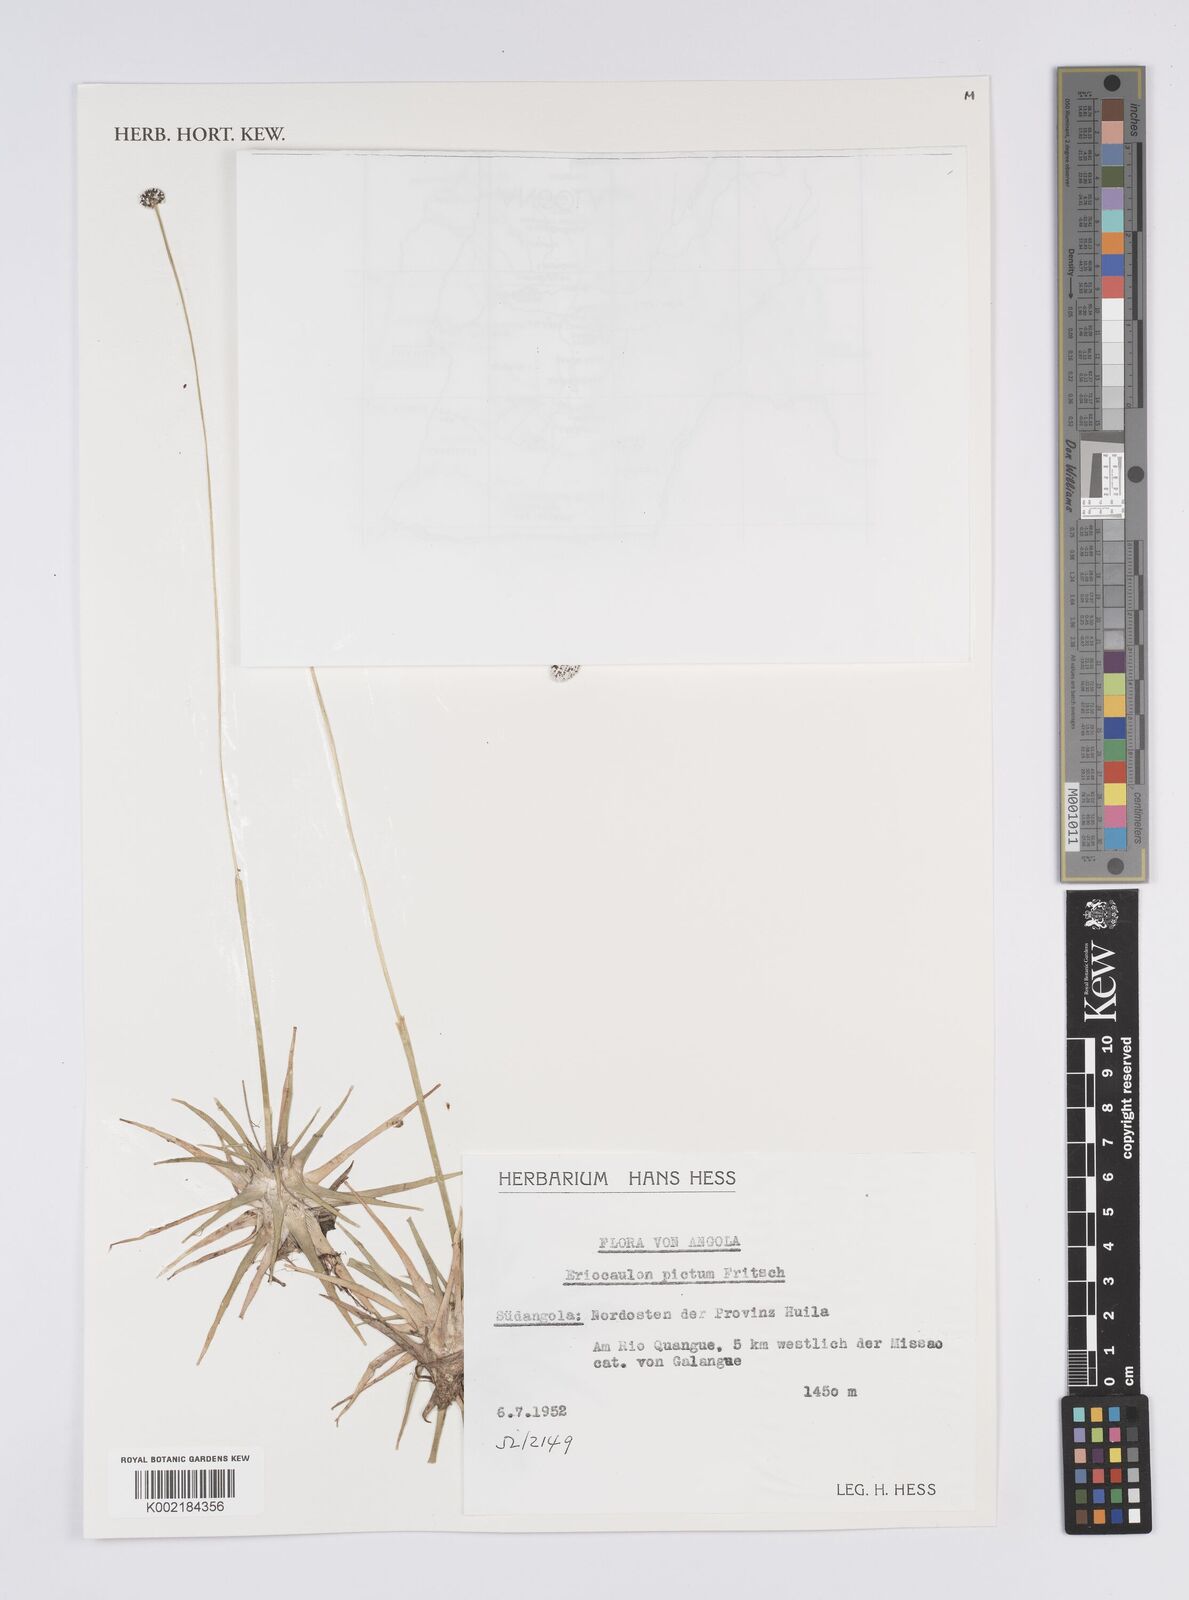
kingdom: Plantae
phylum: Tracheophyta
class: Liliopsida
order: Poales
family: Eriocaulaceae
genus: Eriocaulon
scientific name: Eriocaulon pictum
